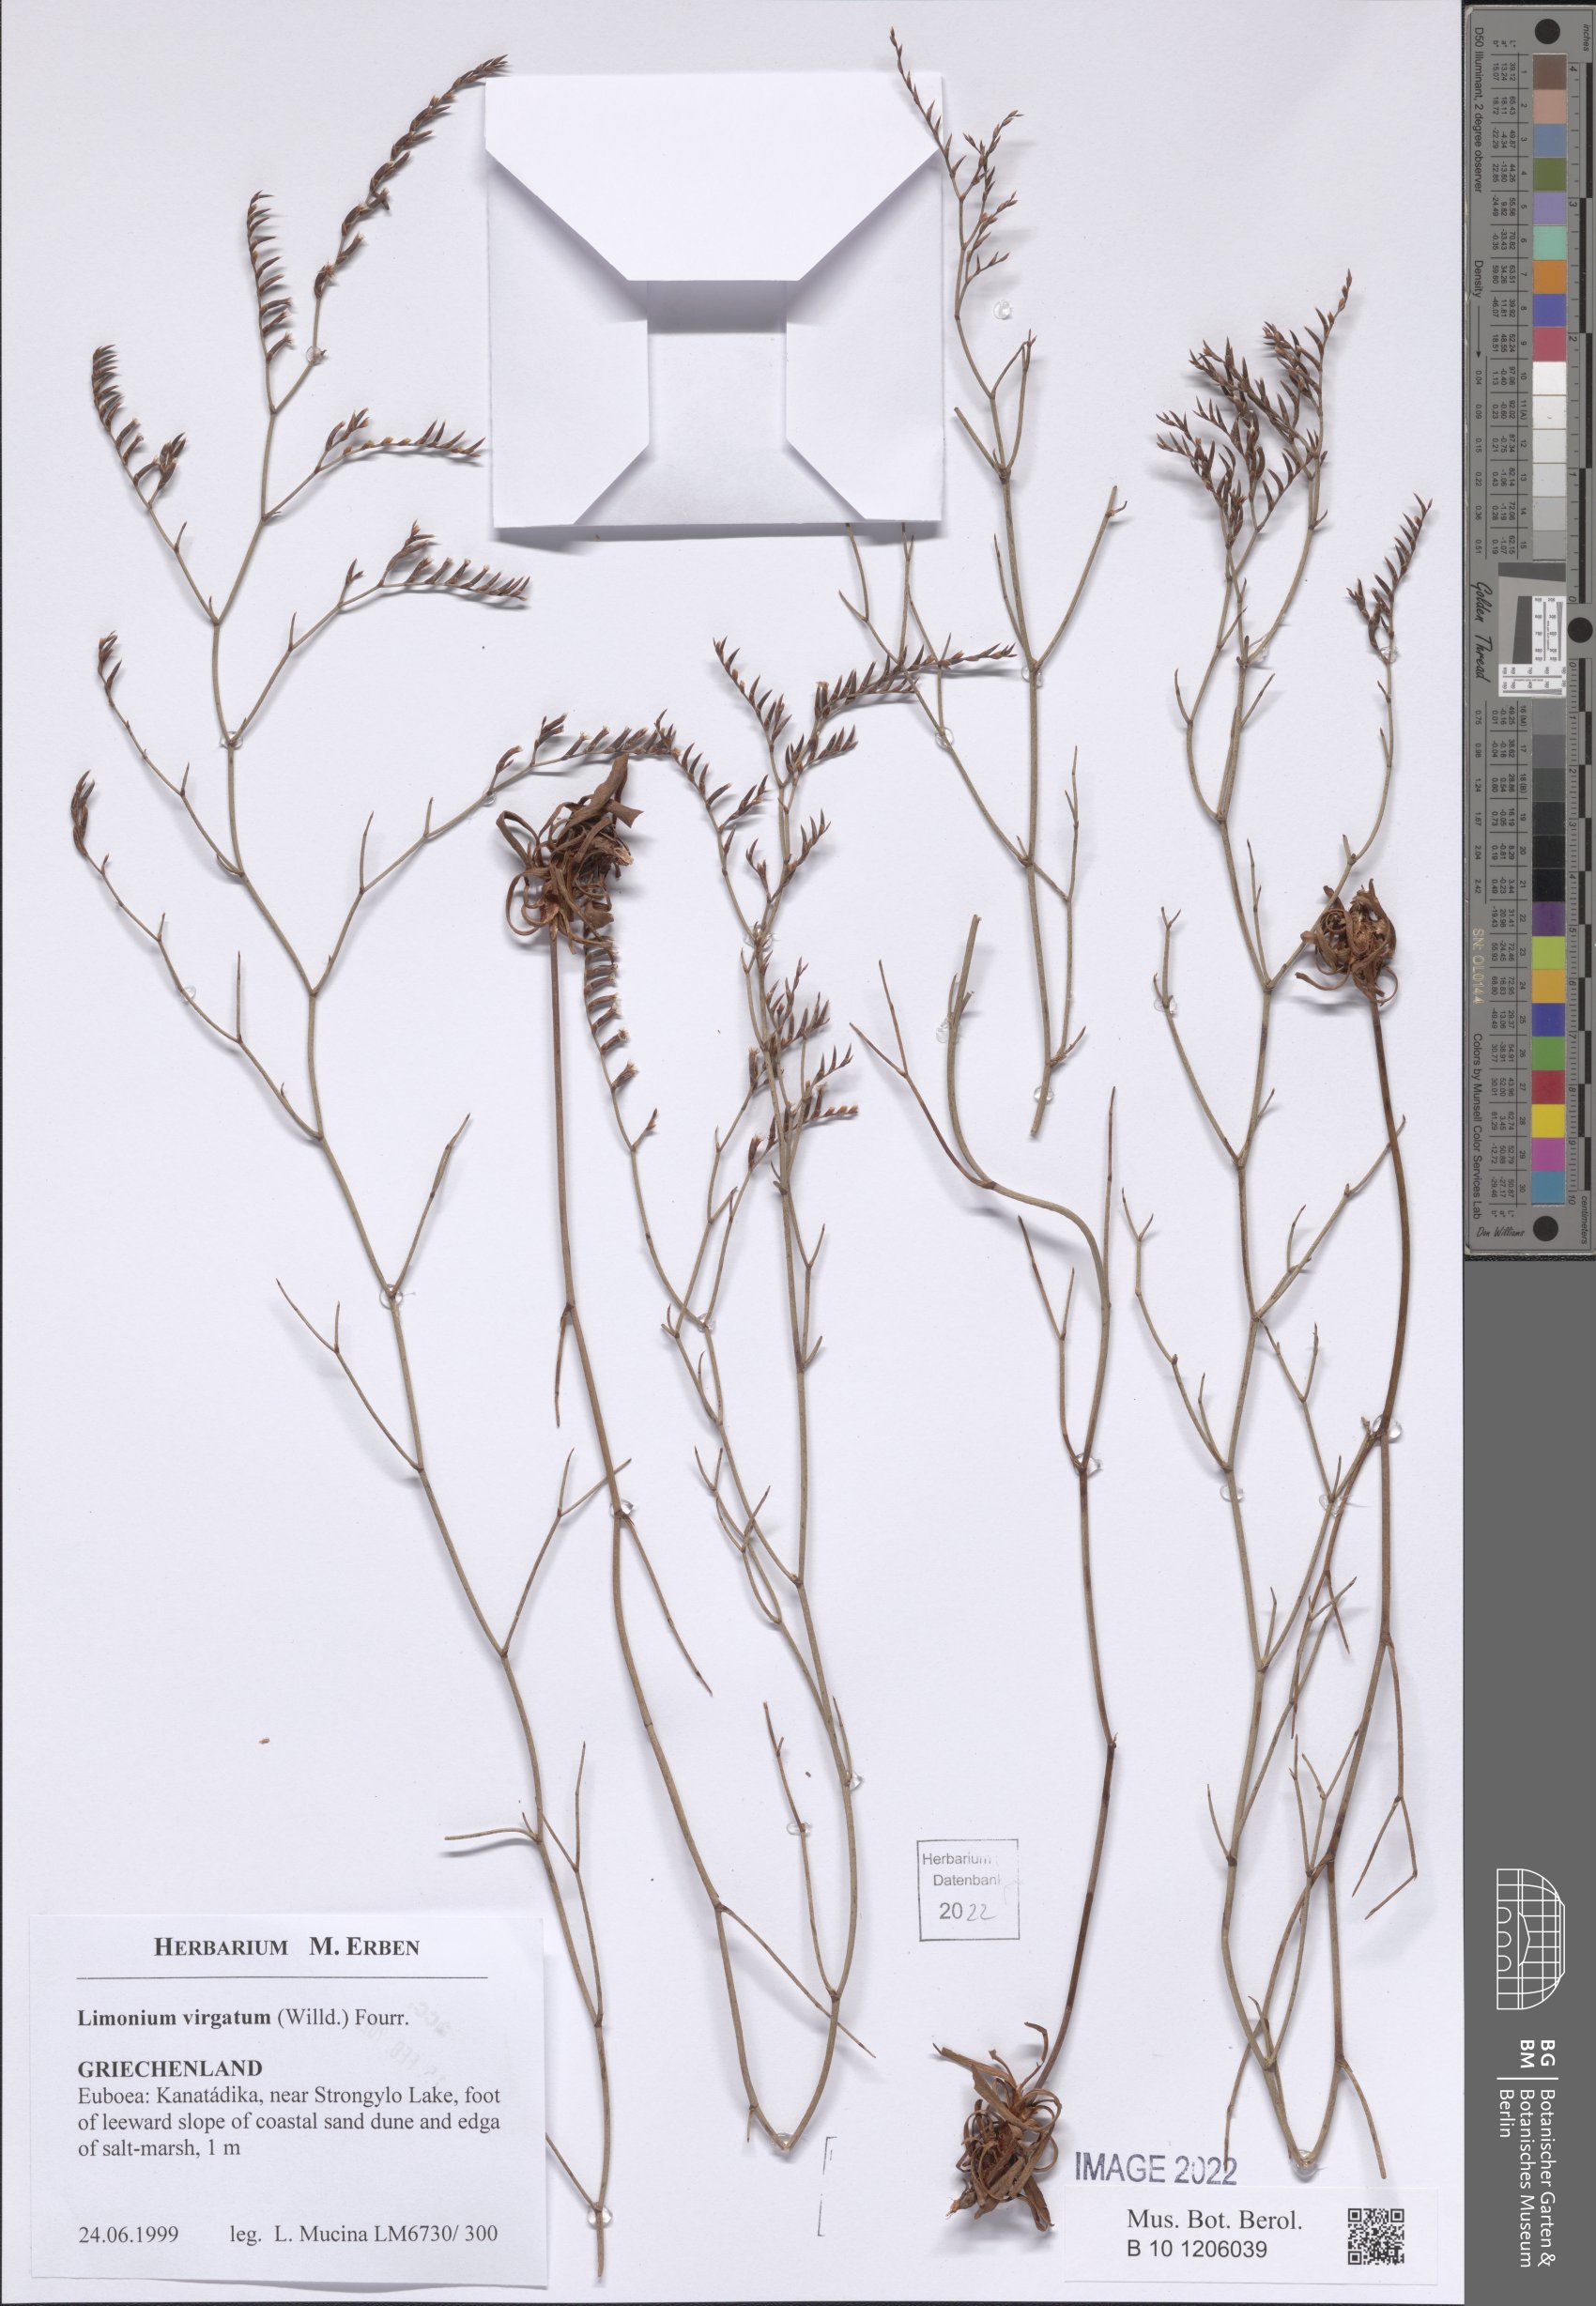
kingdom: Plantae
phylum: Tracheophyta
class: Magnoliopsida
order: Caryophyllales
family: Plumbaginaceae
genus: Limonium
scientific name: Limonium virgatum
